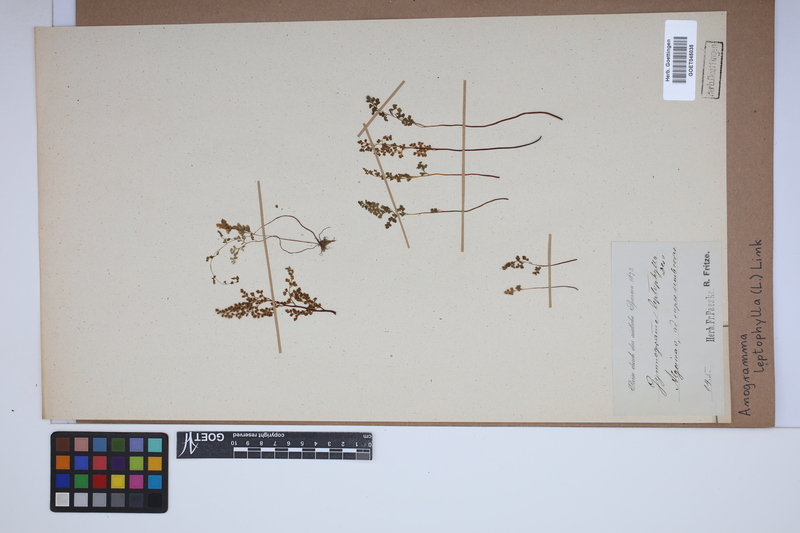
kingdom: Plantae
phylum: Tracheophyta
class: Polypodiopsida
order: Polypodiales
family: Pteridaceae
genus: Anogramma
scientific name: Anogramma leptophylla
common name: Jersey fern
